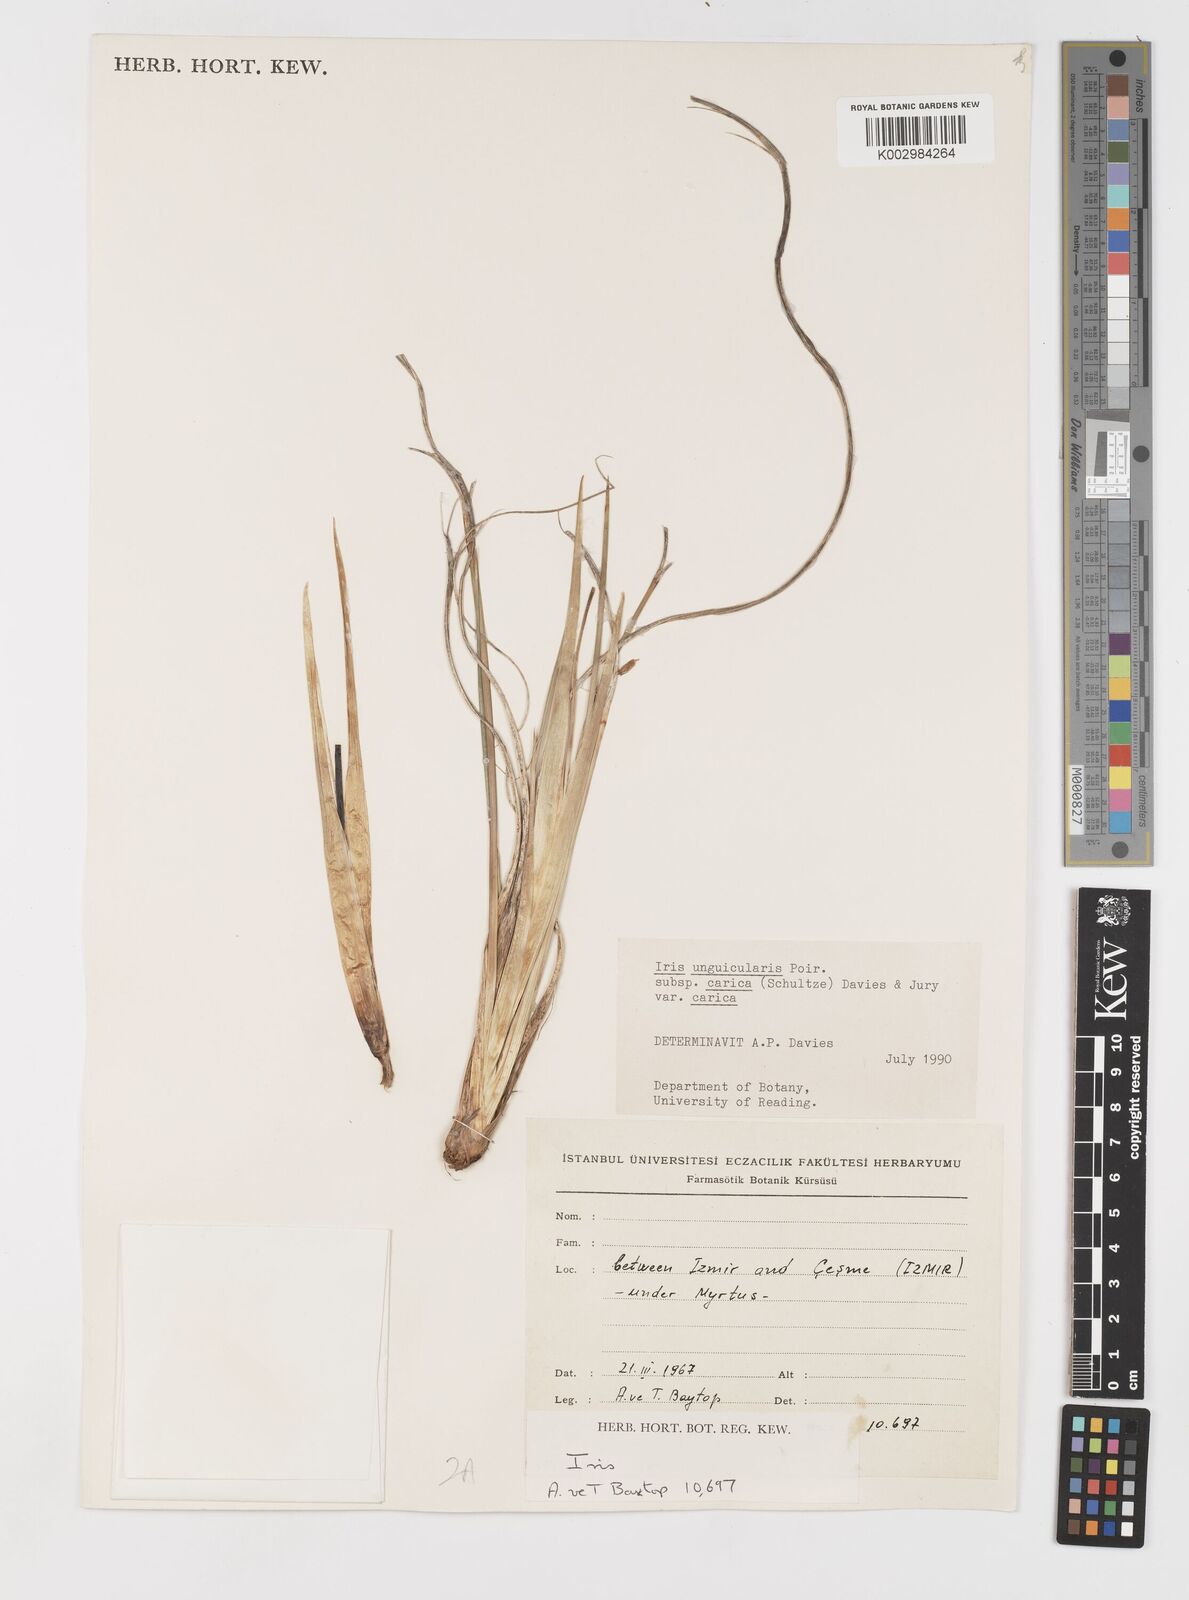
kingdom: Plantae
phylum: Tracheophyta
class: Liliopsida
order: Asparagales
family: Iridaceae
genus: Iris
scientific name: Iris unguicularis
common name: Algerian iris
